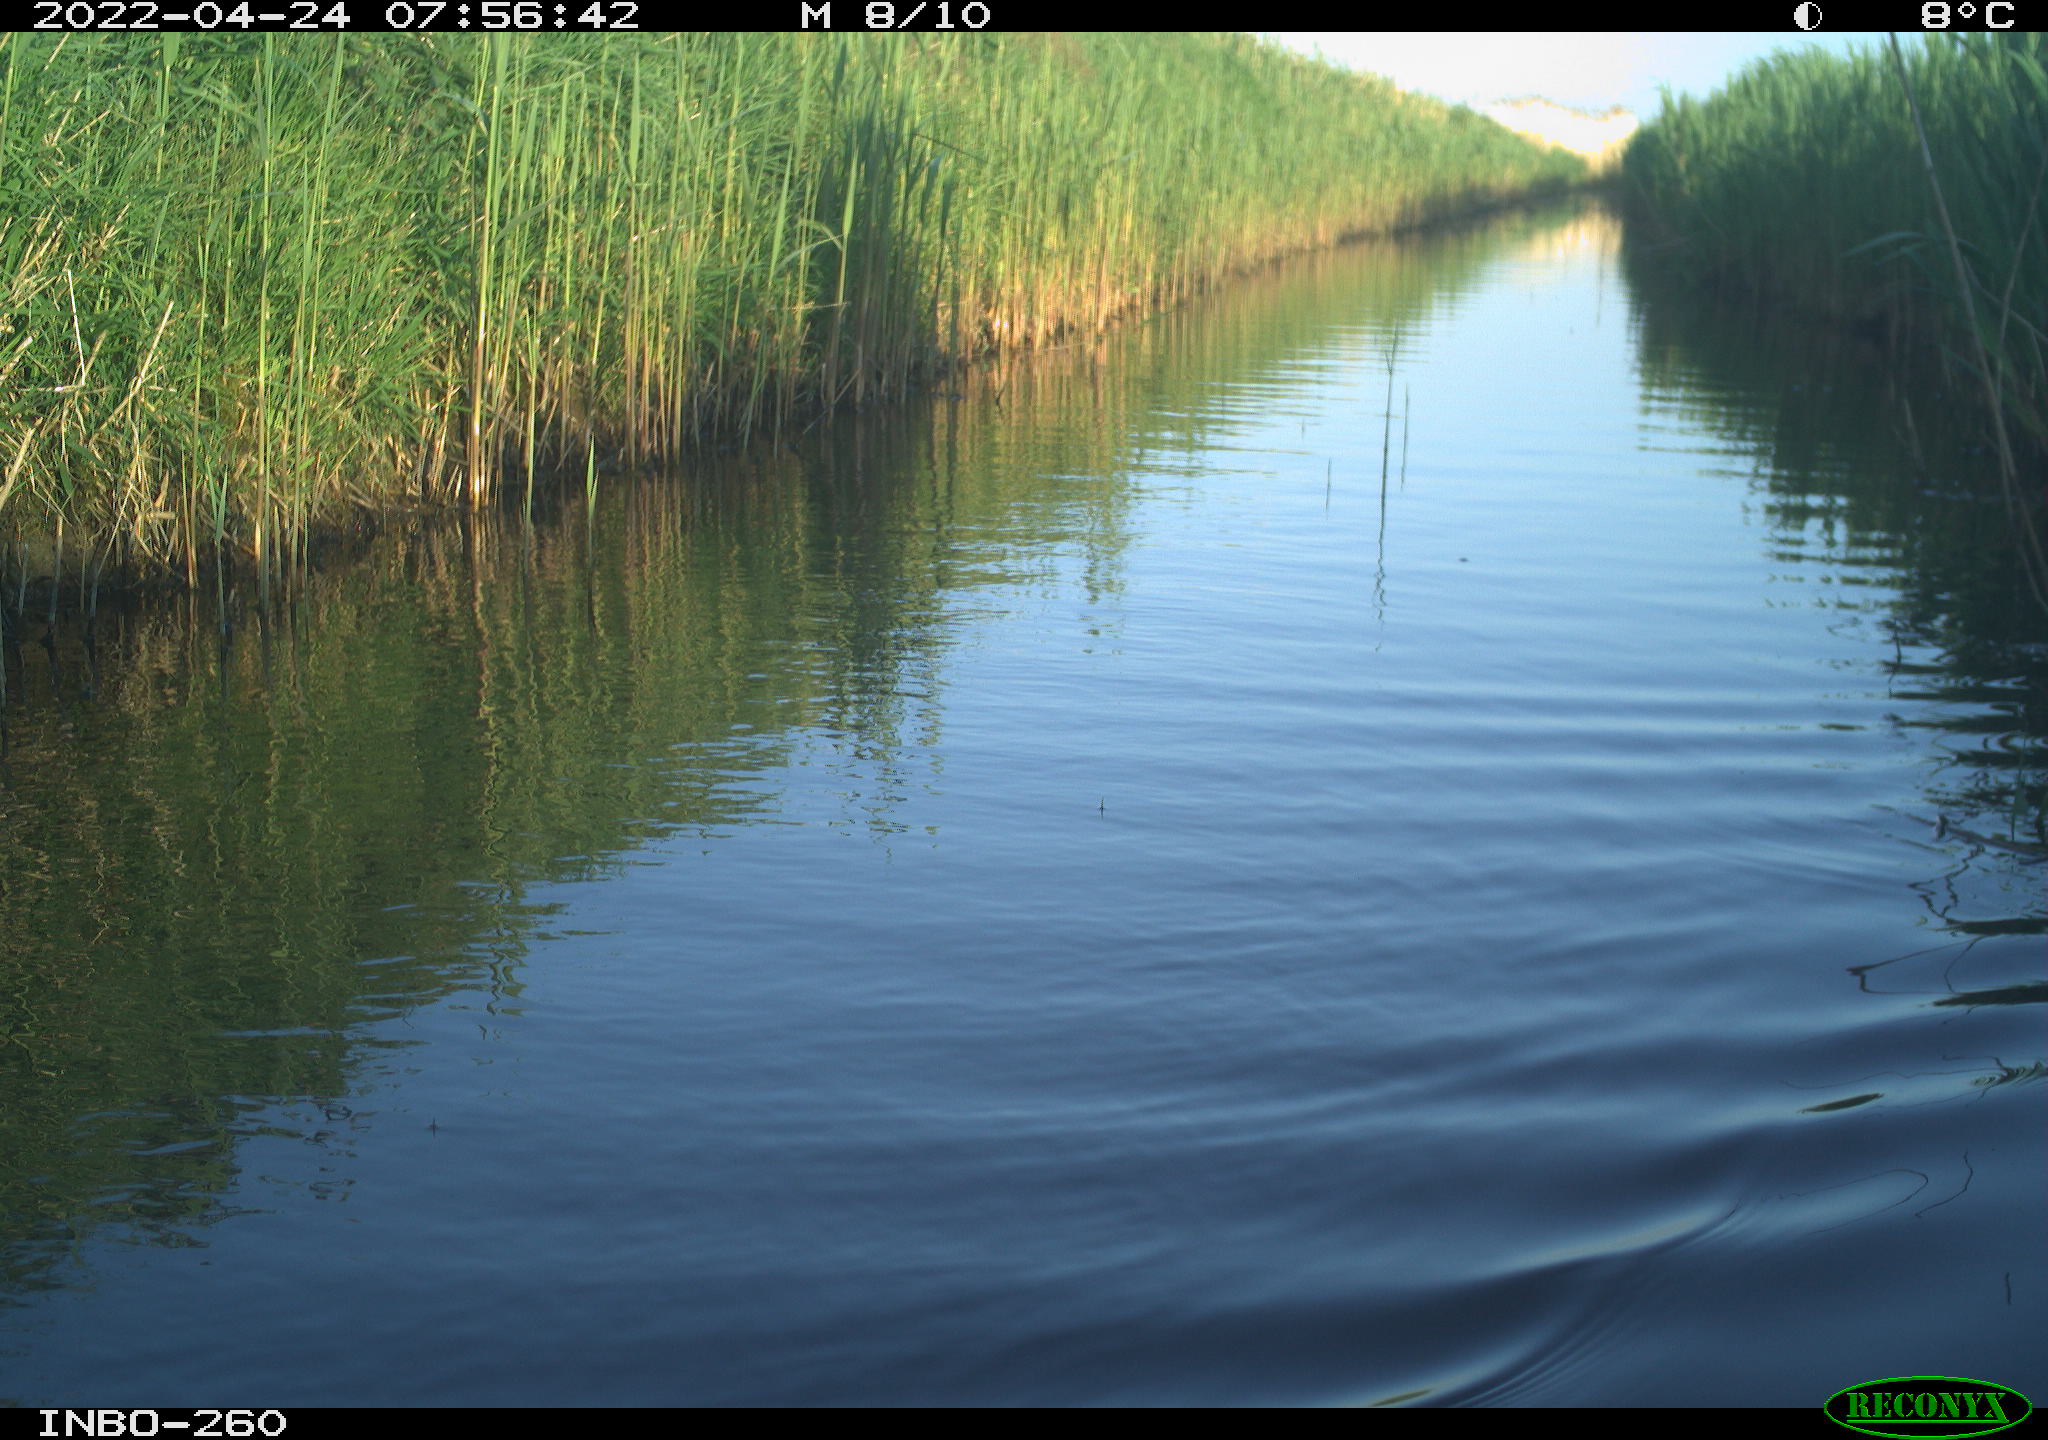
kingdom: Animalia
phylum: Chordata
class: Aves
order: Gruiformes
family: Rallidae
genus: Fulica
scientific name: Fulica atra
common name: Eurasian coot
